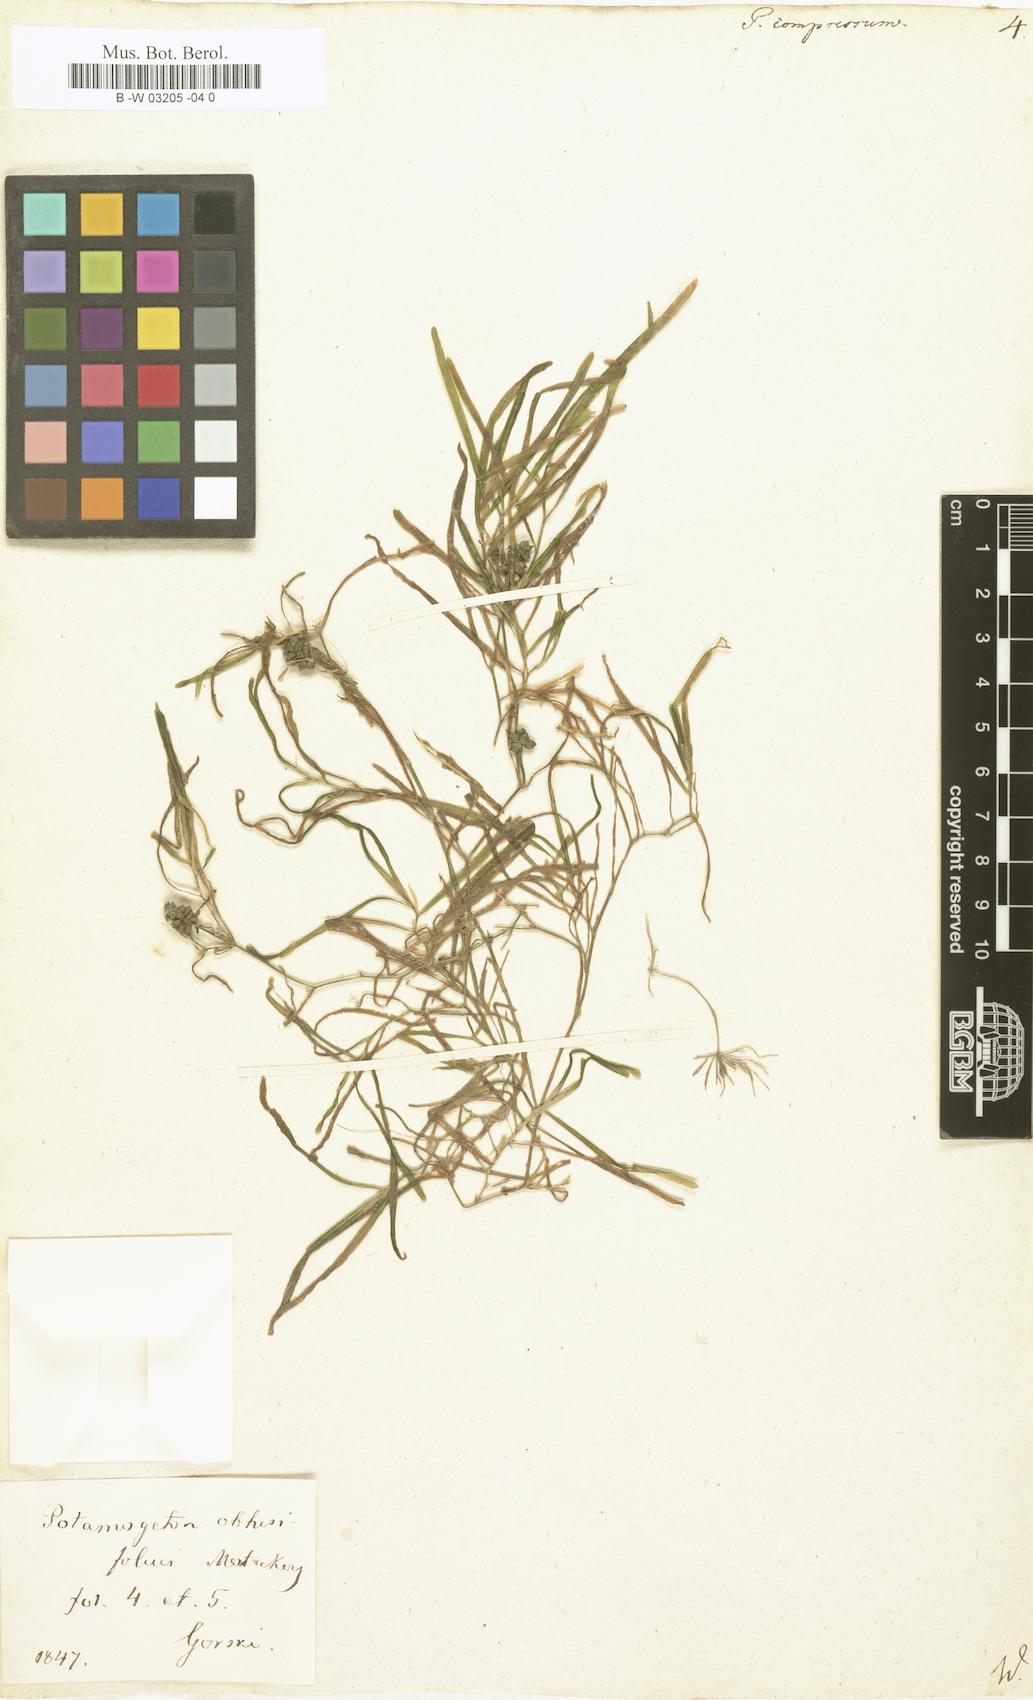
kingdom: Plantae
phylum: Tracheophyta
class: Liliopsida
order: Alismatales
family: Potamogetonaceae
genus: Potamogeton
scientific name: Potamogeton compressus
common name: Grass-wrack pondweed
